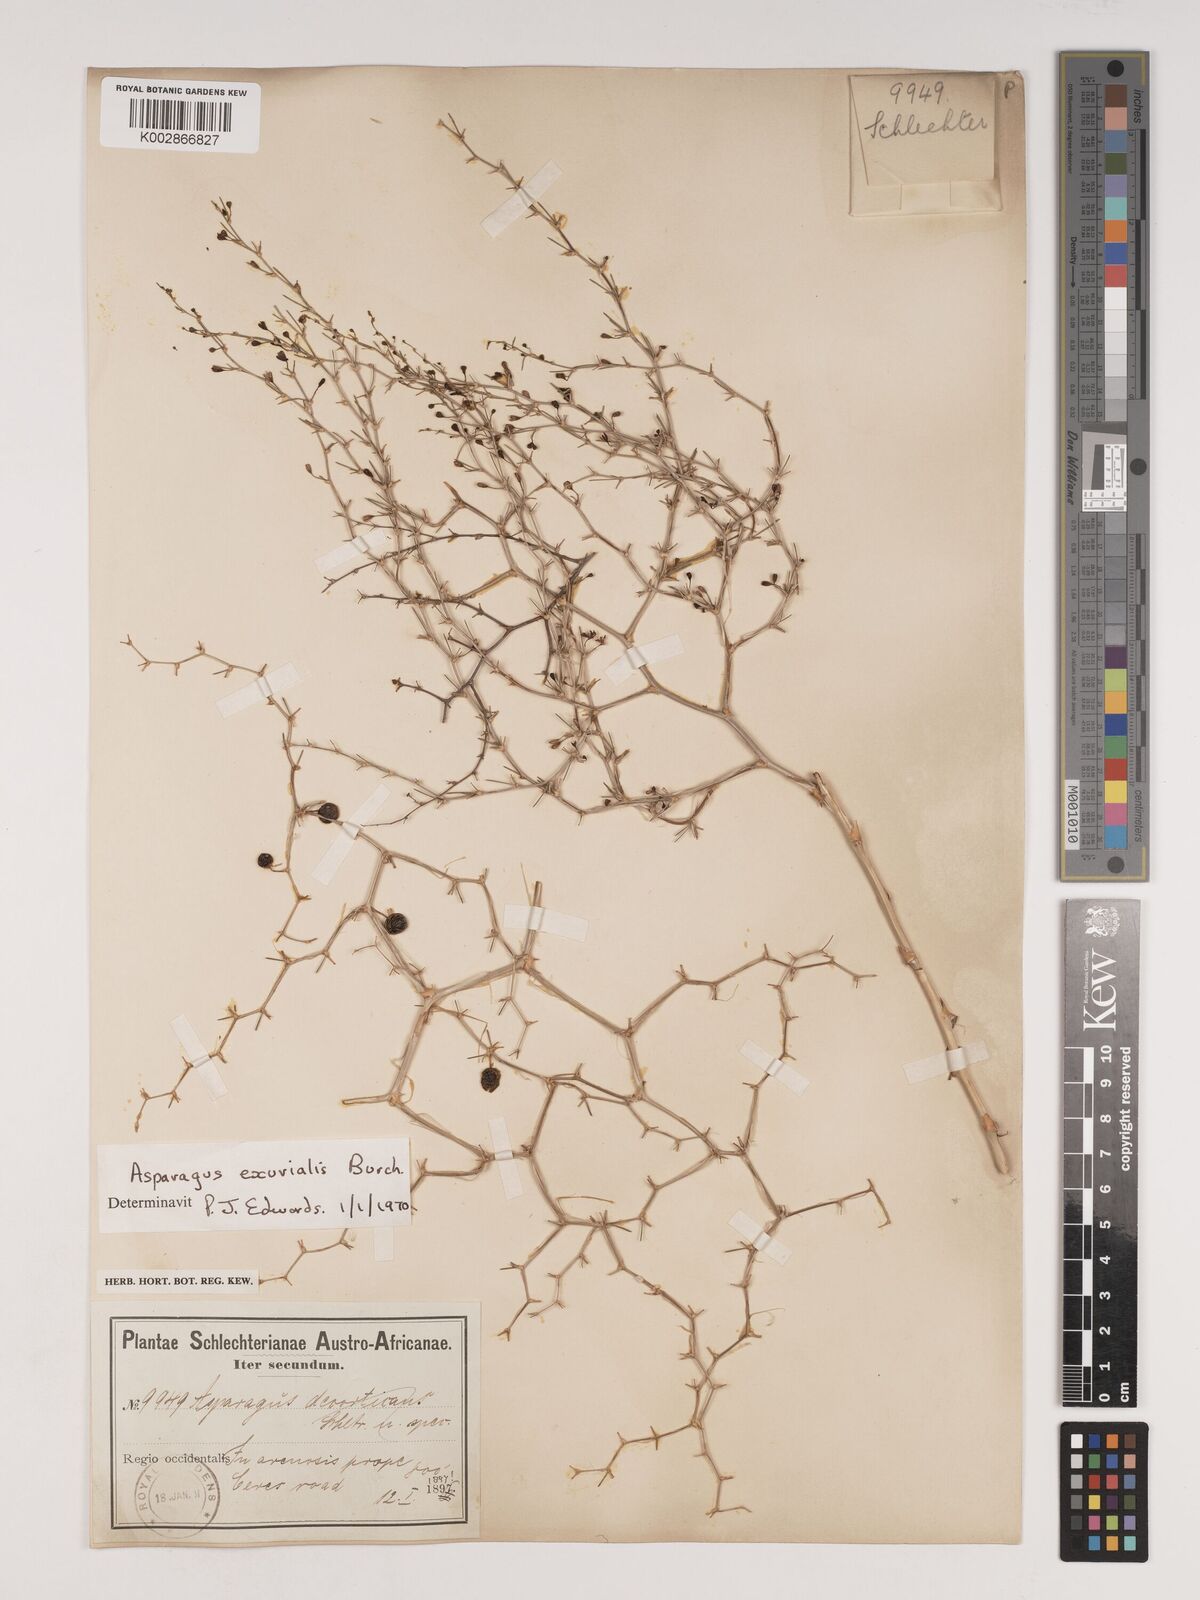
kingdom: Plantae
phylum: Tracheophyta
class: Liliopsida
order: Asparagales
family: Asparagaceae
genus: Asparagus
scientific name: Asparagus exuvialis
